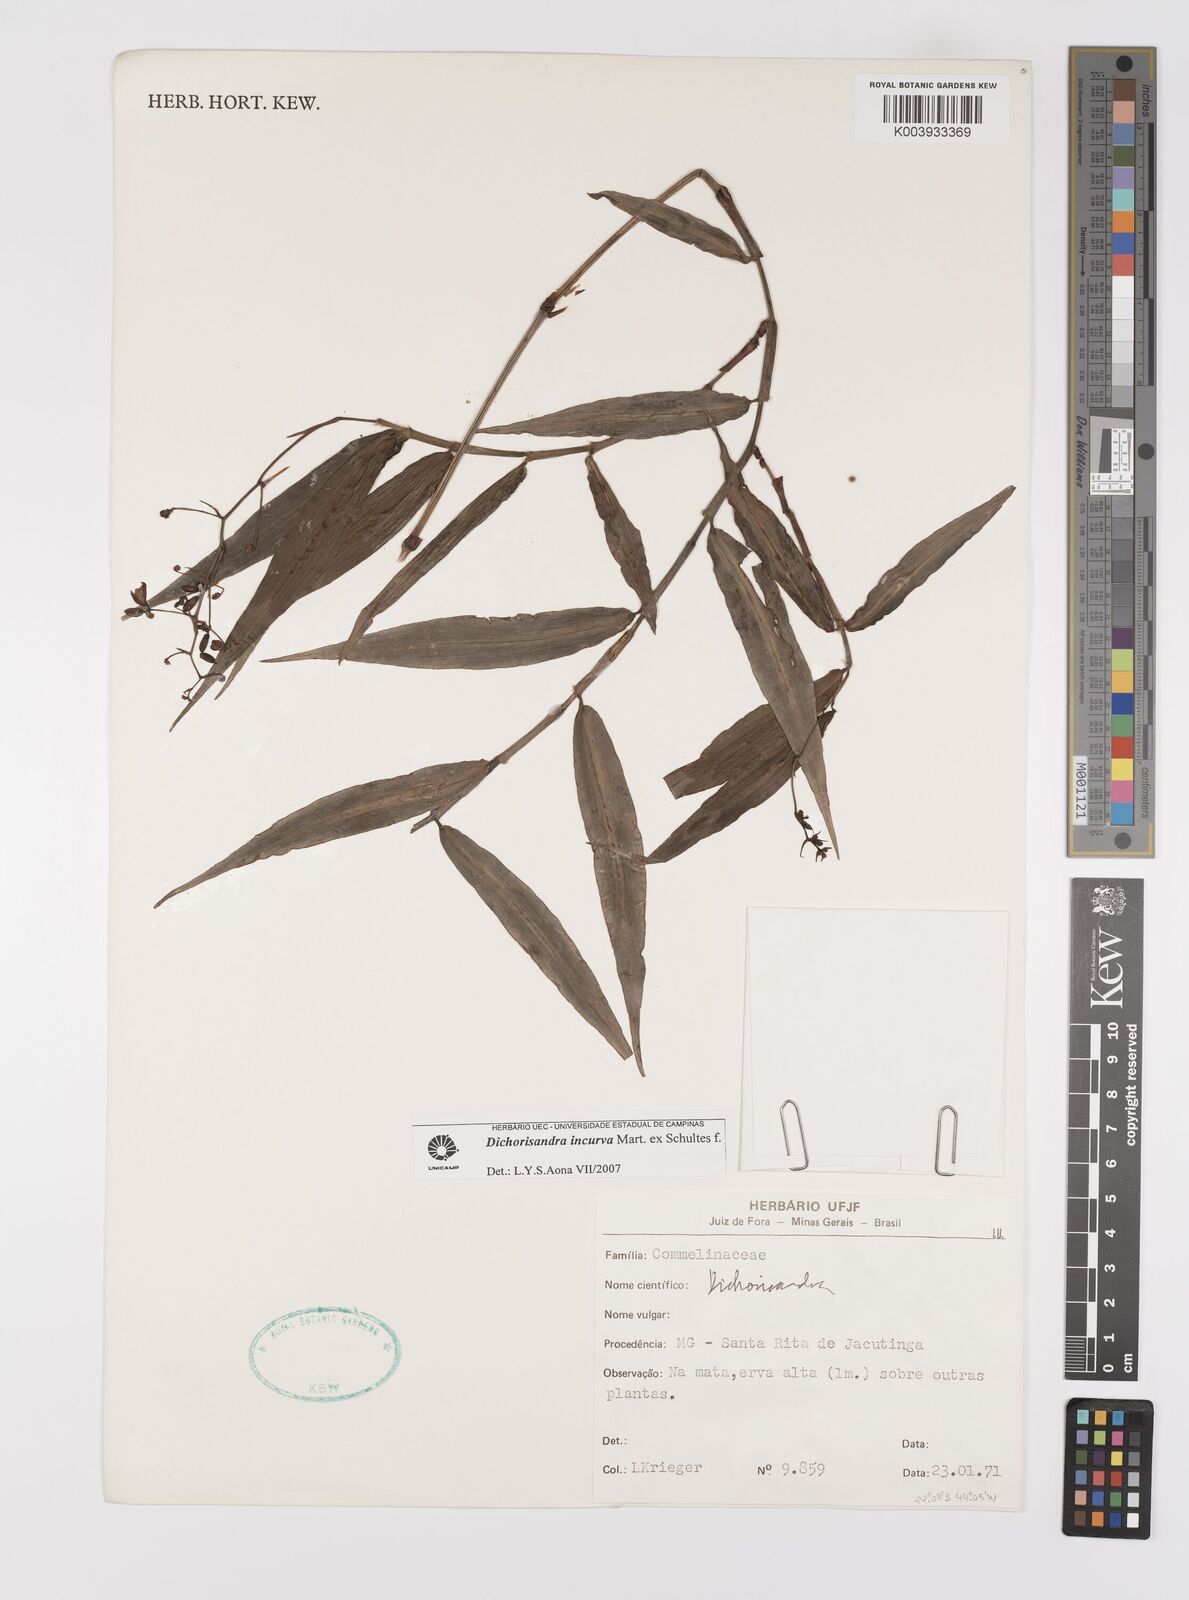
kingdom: Plantae
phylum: Tracheophyta
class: Liliopsida
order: Commelinales
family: Commelinaceae
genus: Dichorisandra
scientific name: Dichorisandra incurva
